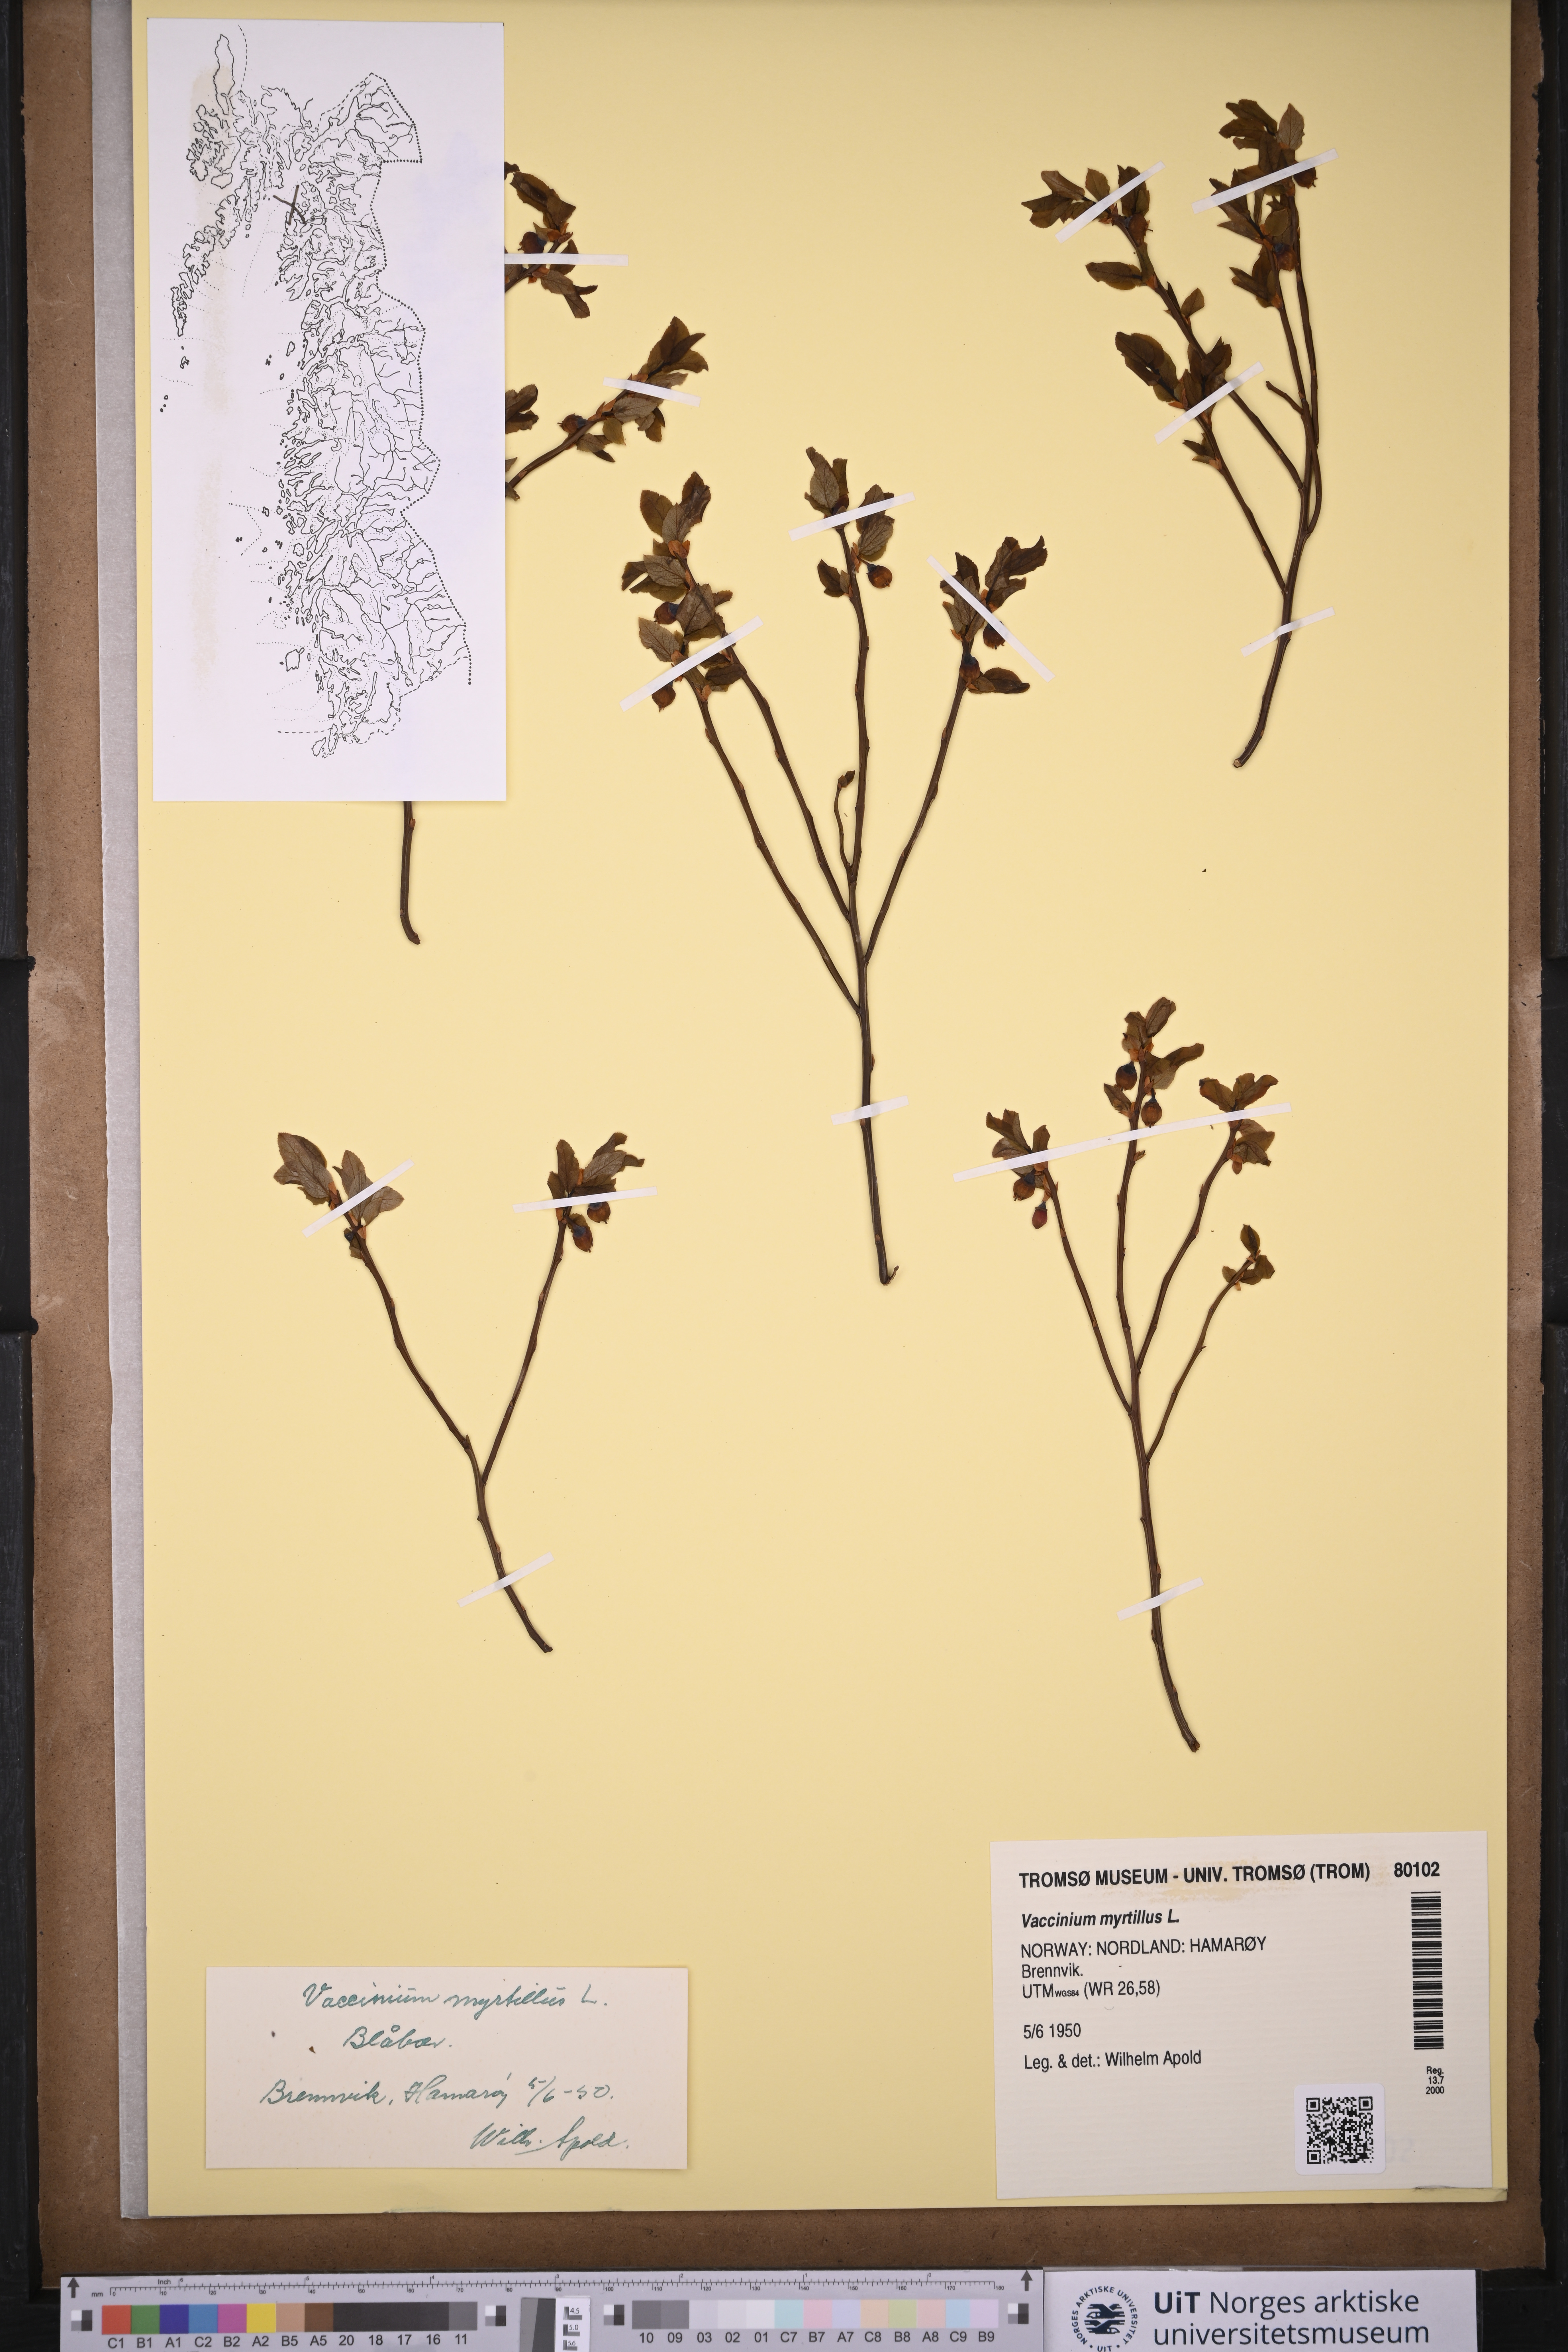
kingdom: Plantae
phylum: Tracheophyta
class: Magnoliopsida
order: Caryophyllales
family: Caryophyllaceae
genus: Spergularia
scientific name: Spergularia marina
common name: Lesser sea-spurrey
